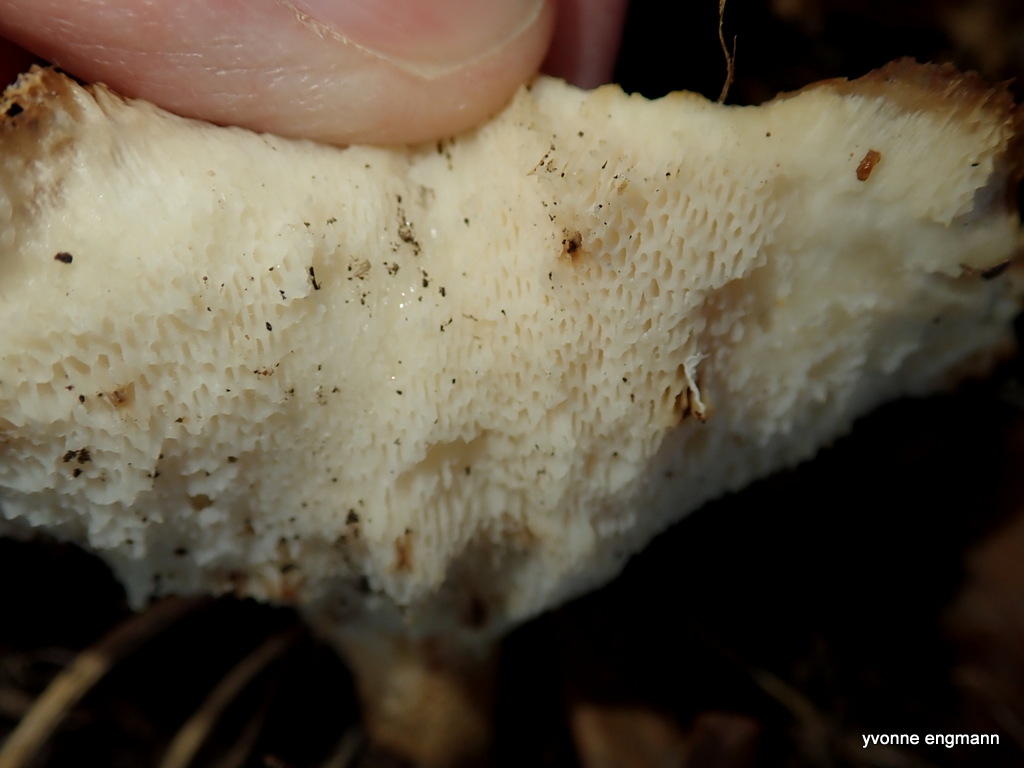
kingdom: Fungi
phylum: Basidiomycota
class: Agaricomycetes
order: Polyporales
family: Polyporaceae
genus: Polyporus
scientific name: Polyporus tuberaster
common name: knoldet stilkporesvamp
